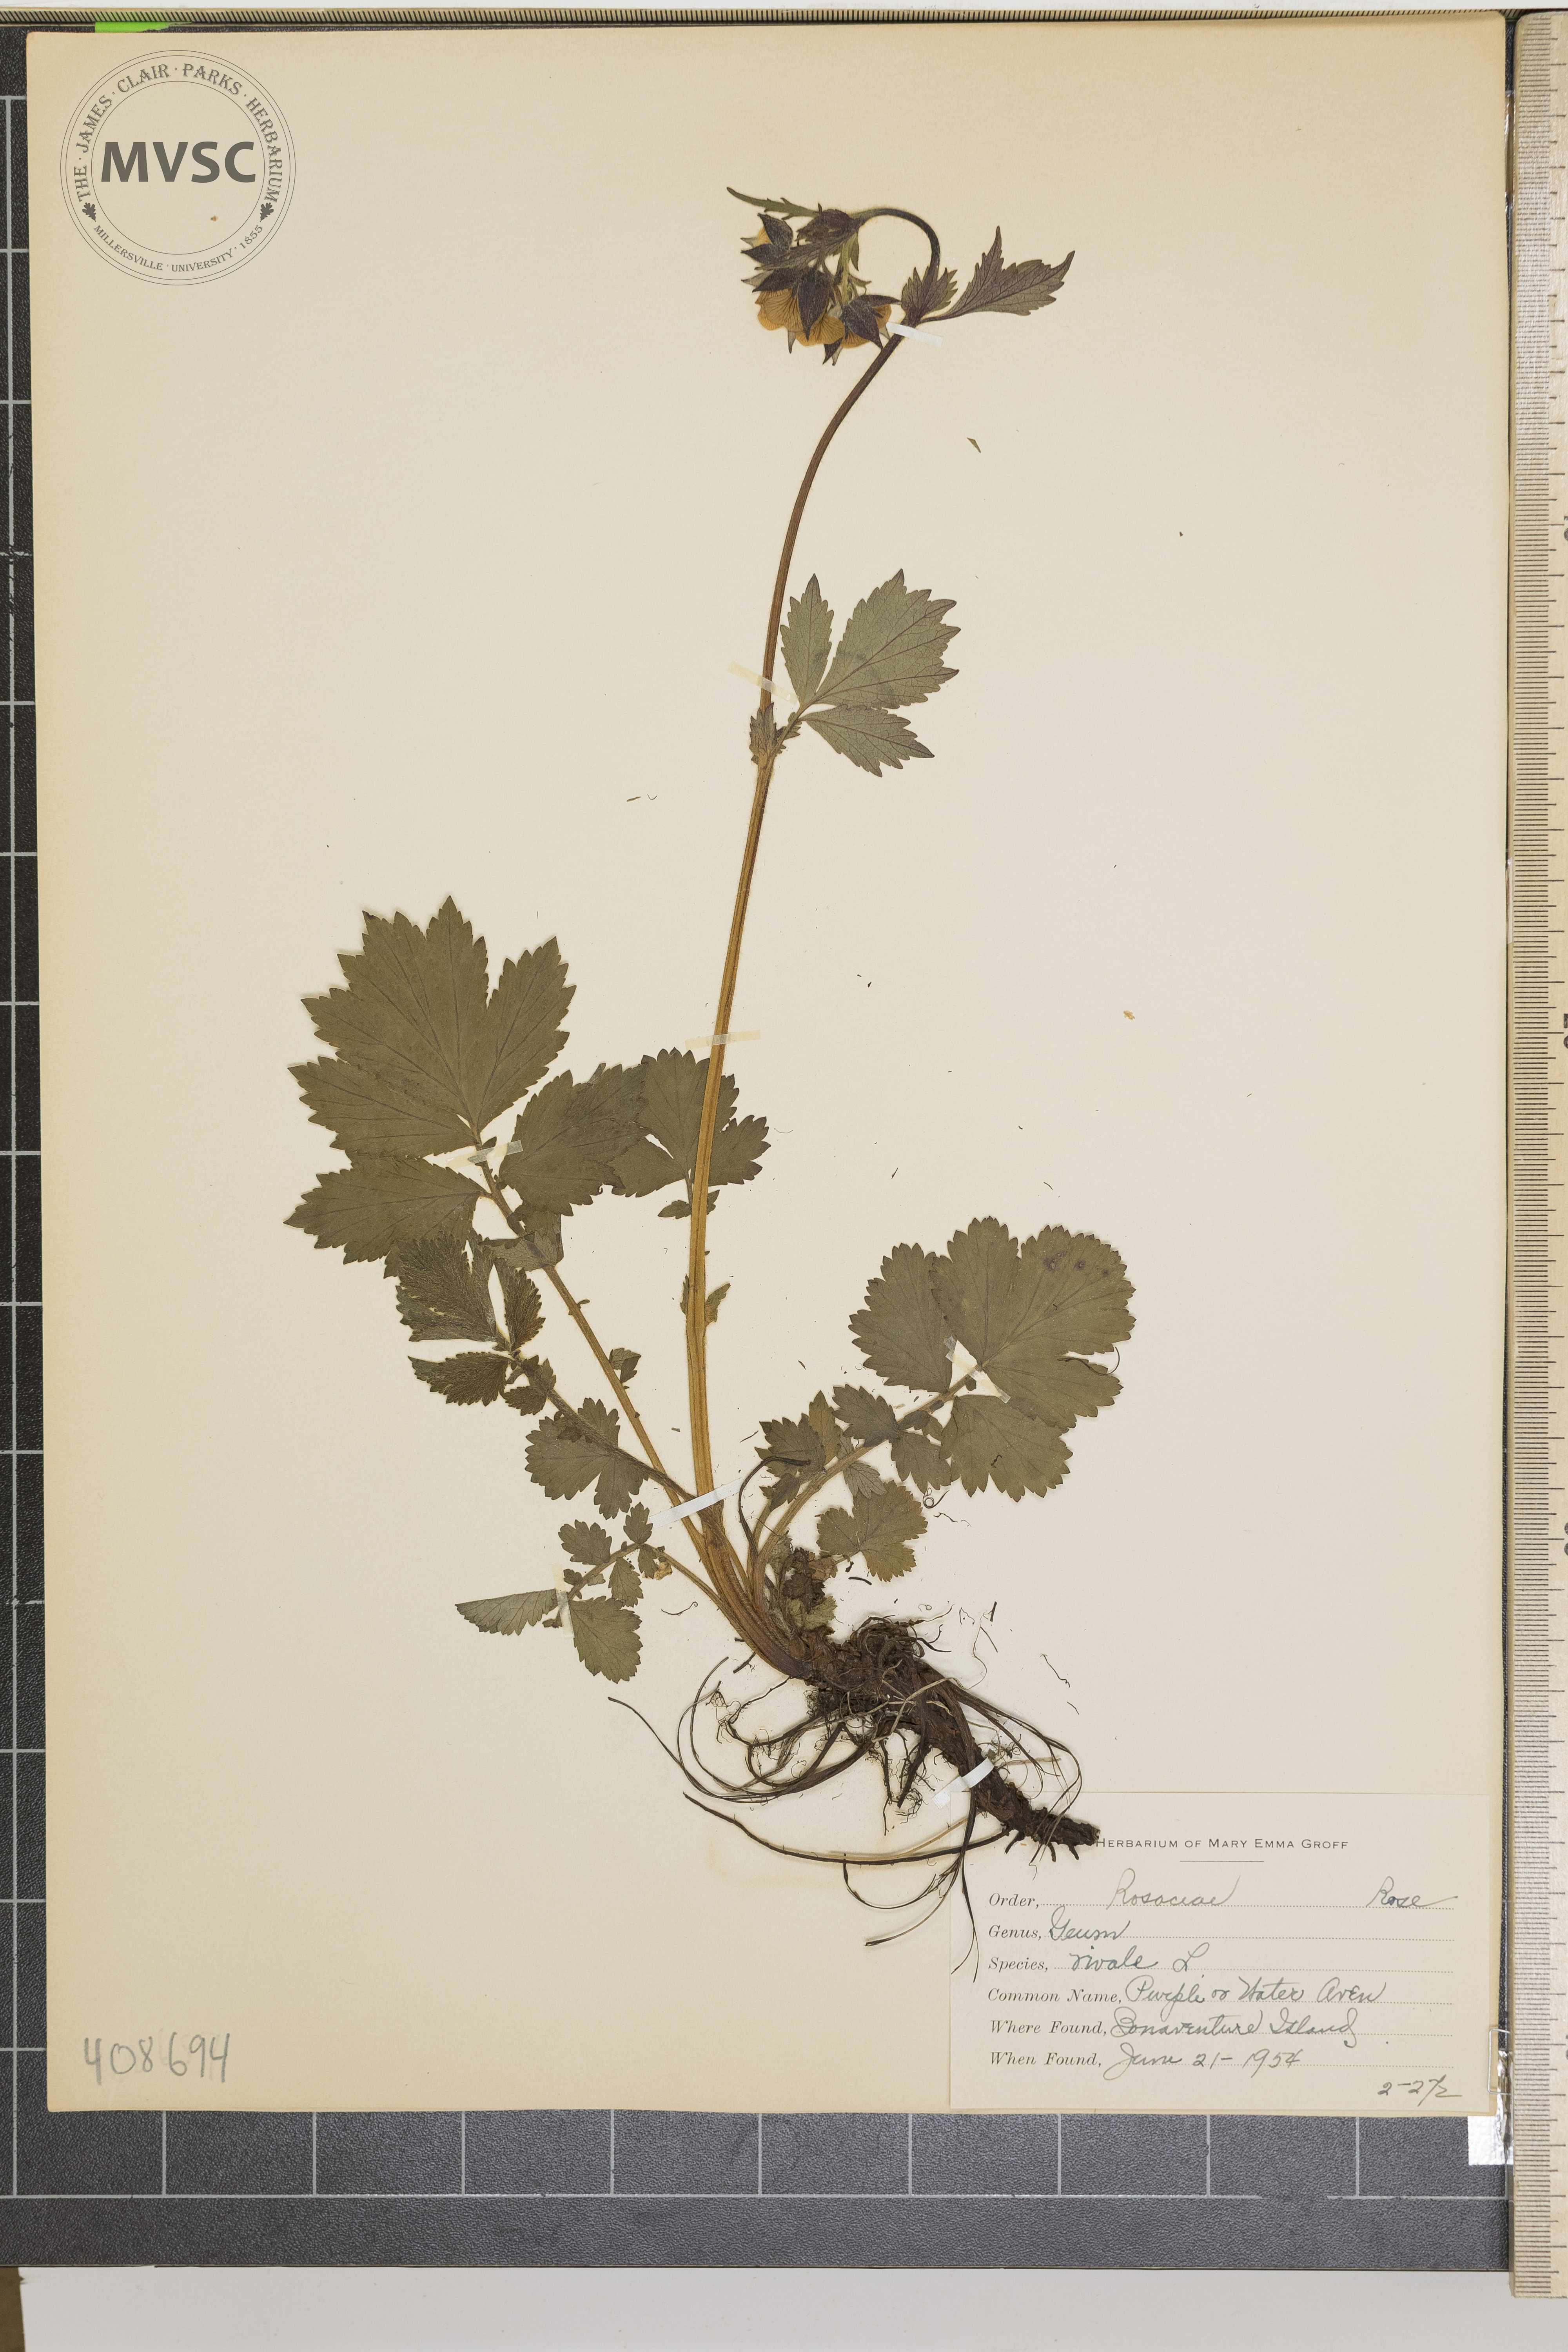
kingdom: Plantae
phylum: Tracheophyta
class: Magnoliopsida
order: Rosales
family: Rosaceae
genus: Geum
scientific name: Geum rivale
